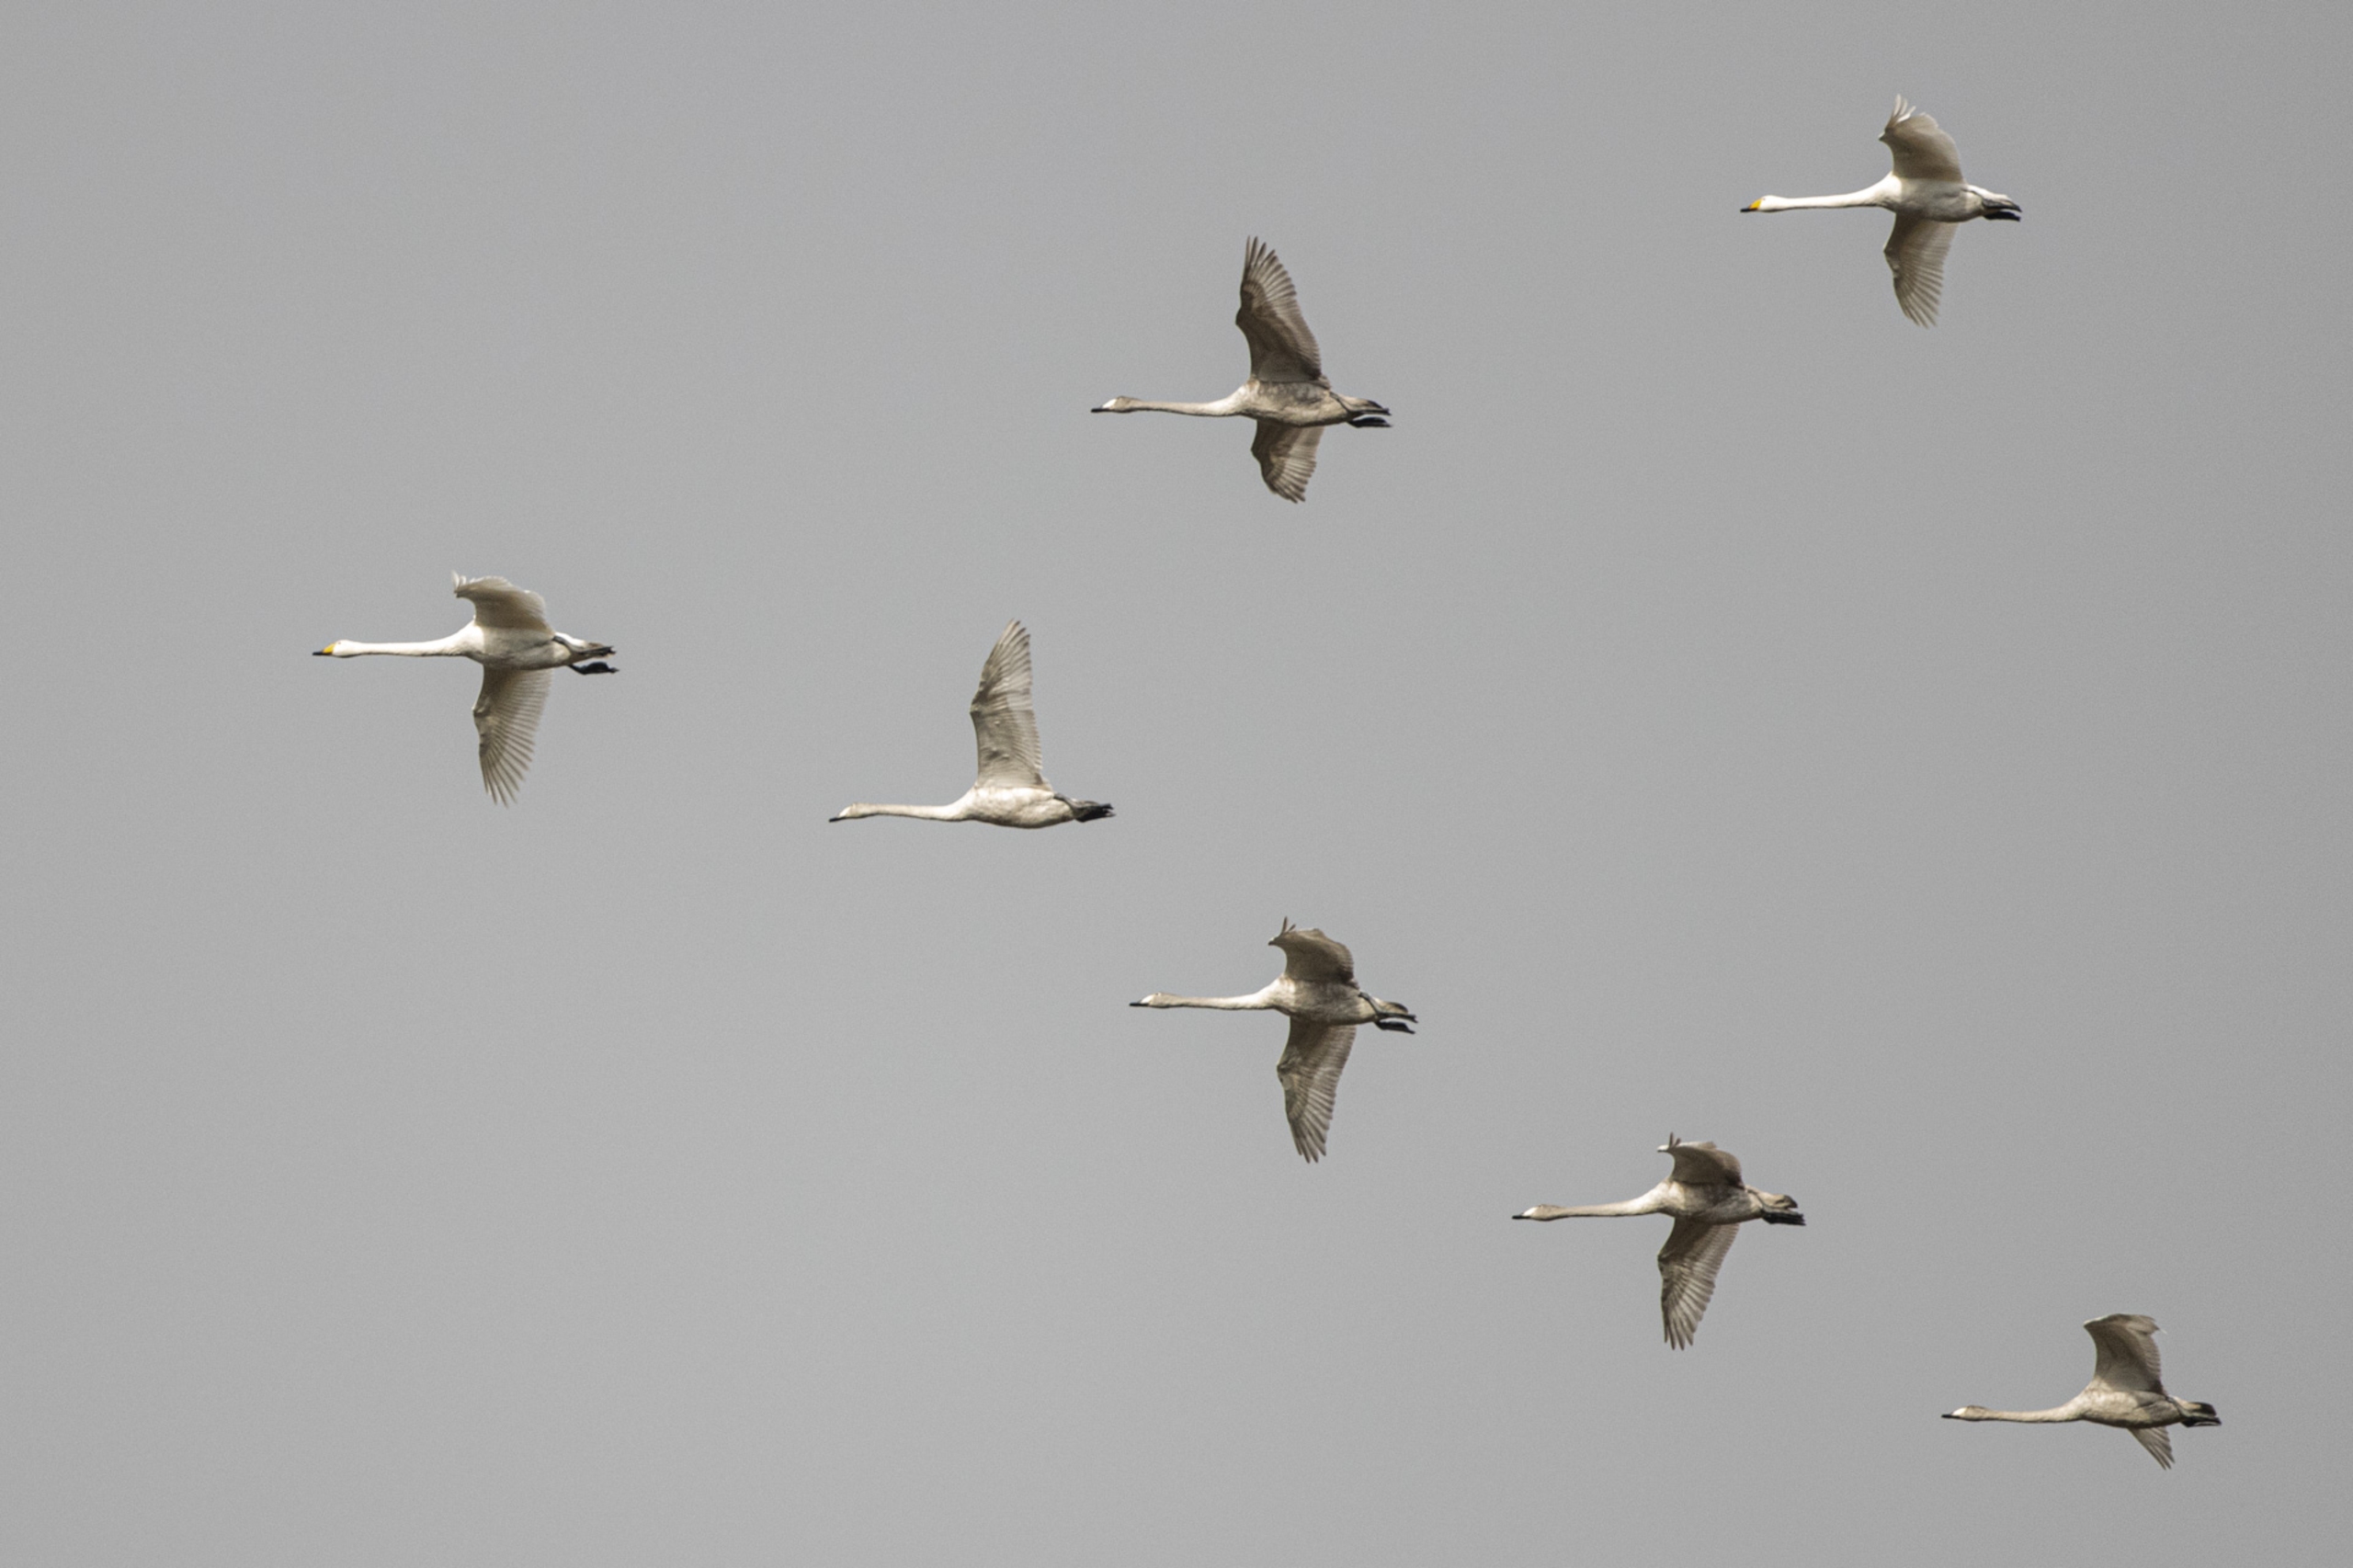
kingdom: Animalia
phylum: Chordata
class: Aves
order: Anseriformes
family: Anatidae
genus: Cygnus
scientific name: Cygnus cygnus
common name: Sangsvane
